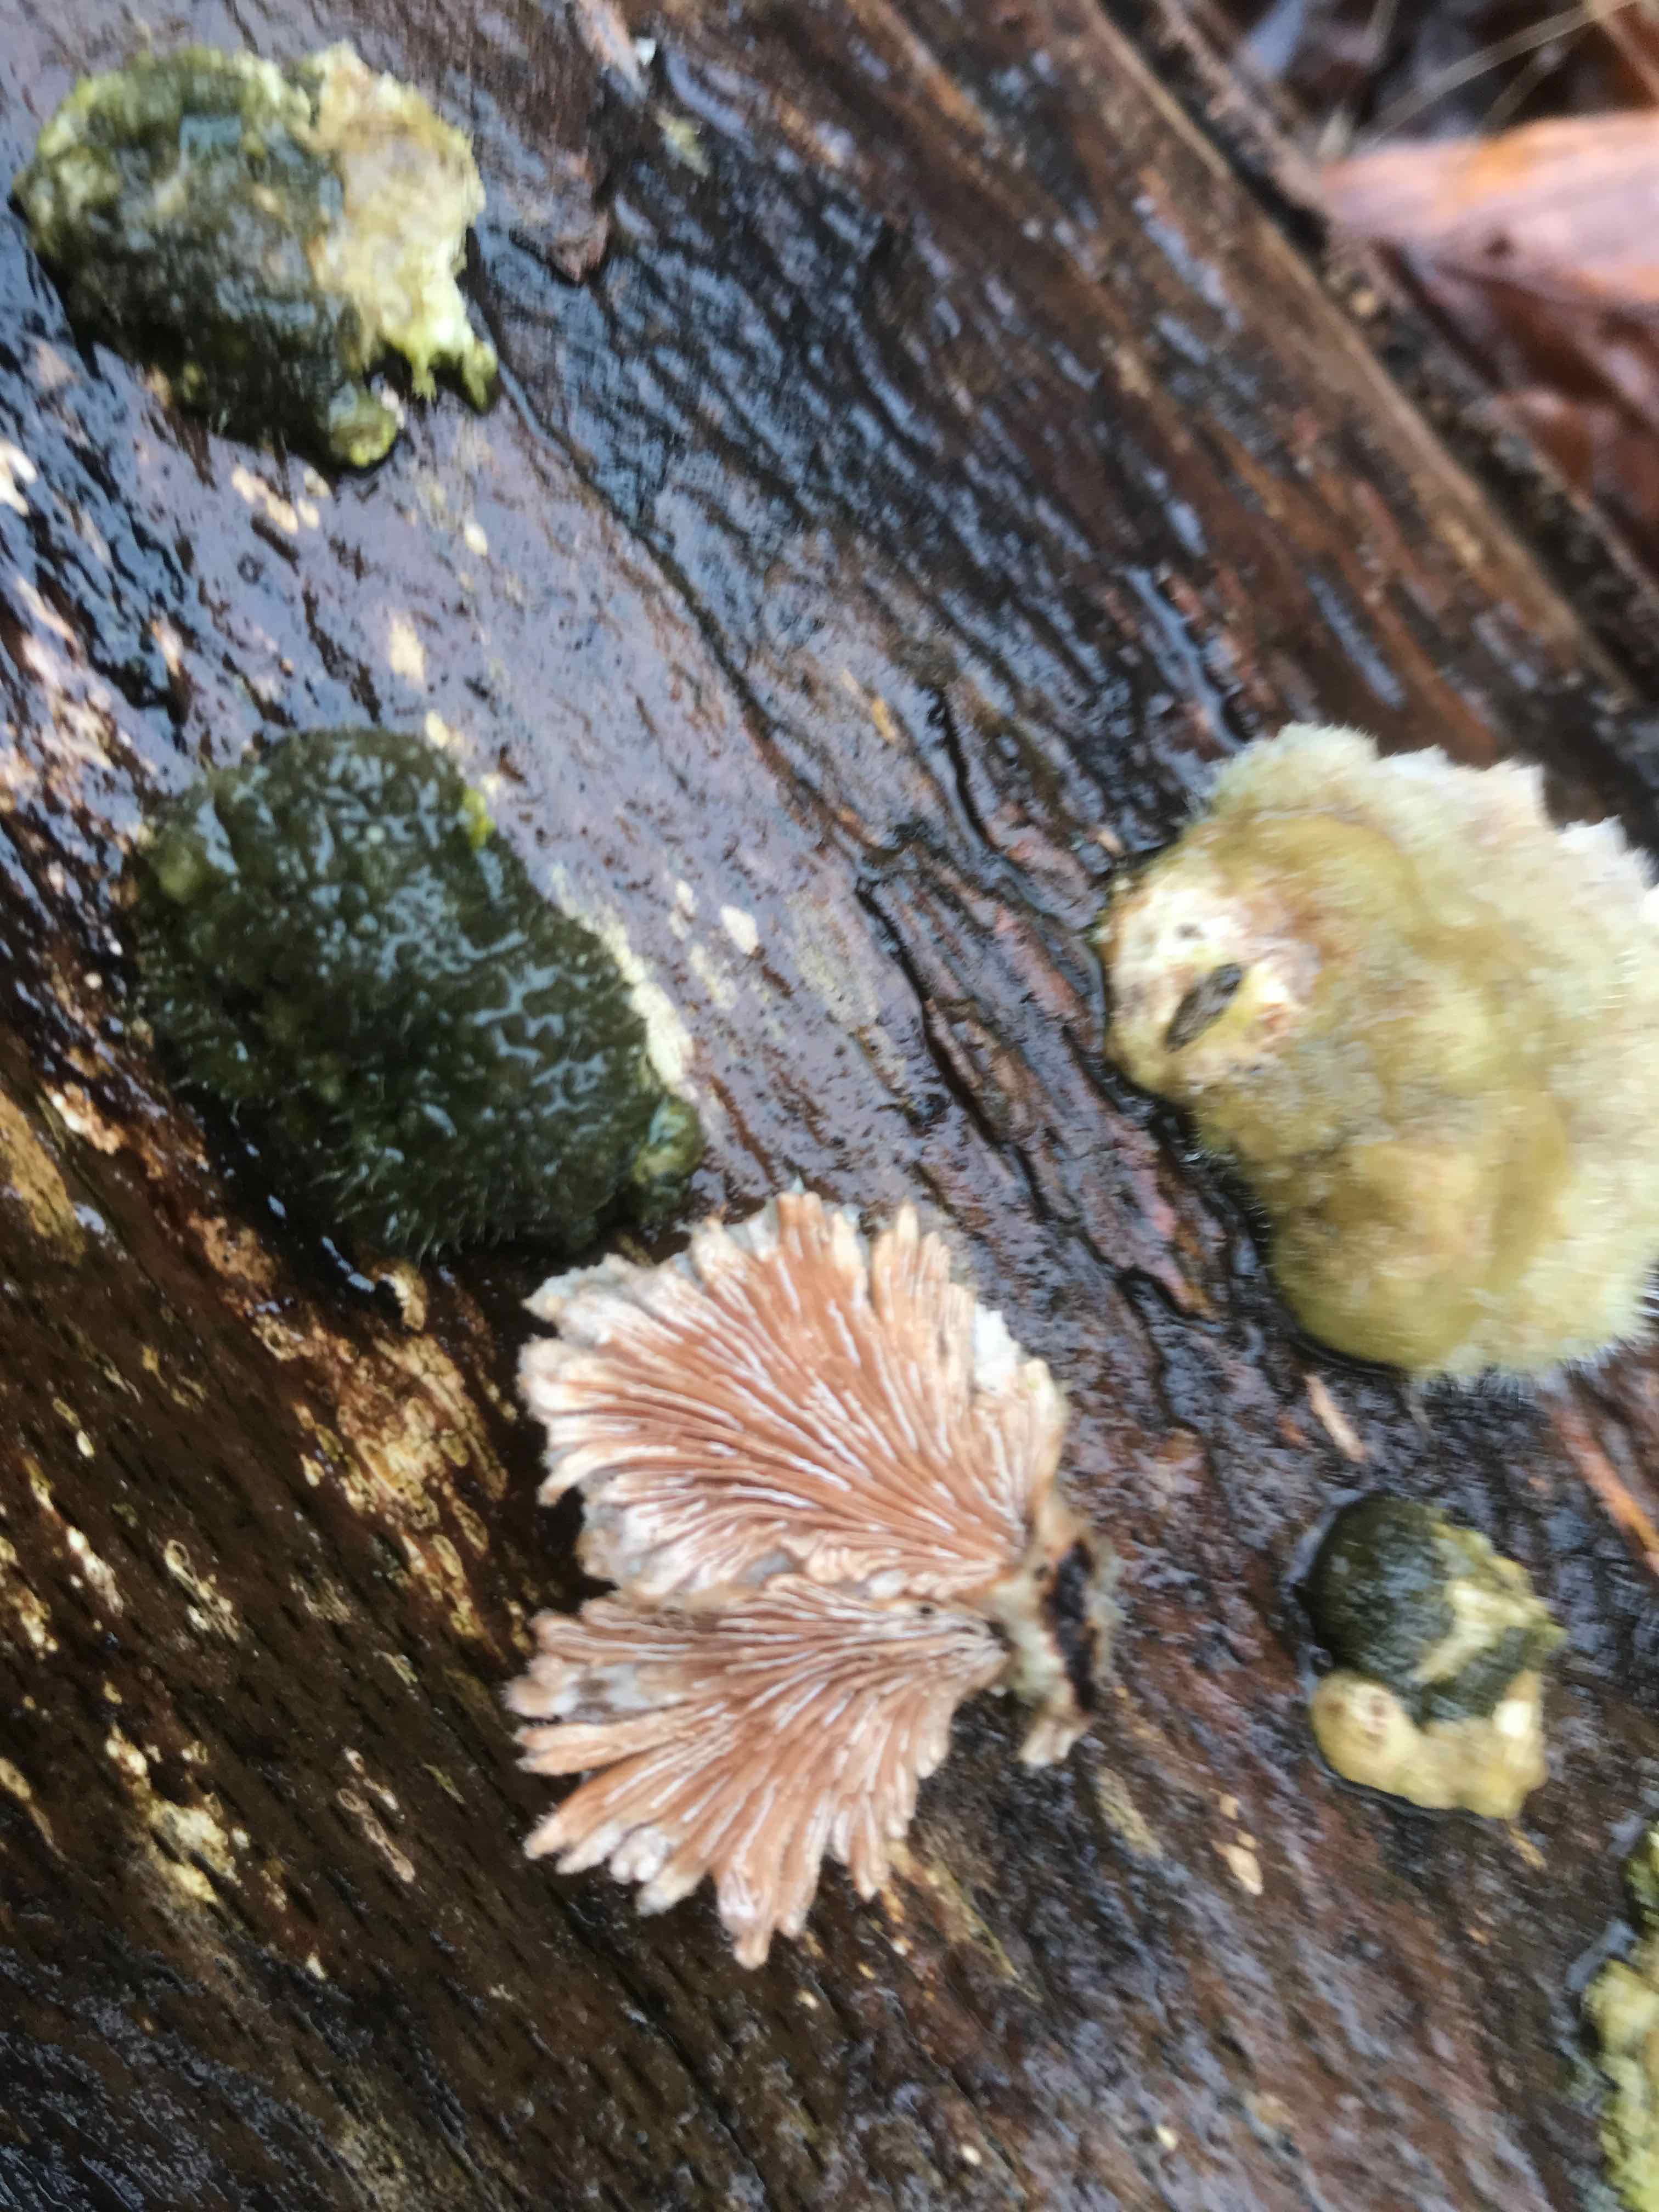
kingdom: Fungi
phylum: Basidiomycota
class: Agaricomycetes
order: Agaricales
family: Schizophyllaceae
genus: Schizophyllum
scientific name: Schizophyllum commune
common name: kløvblad
